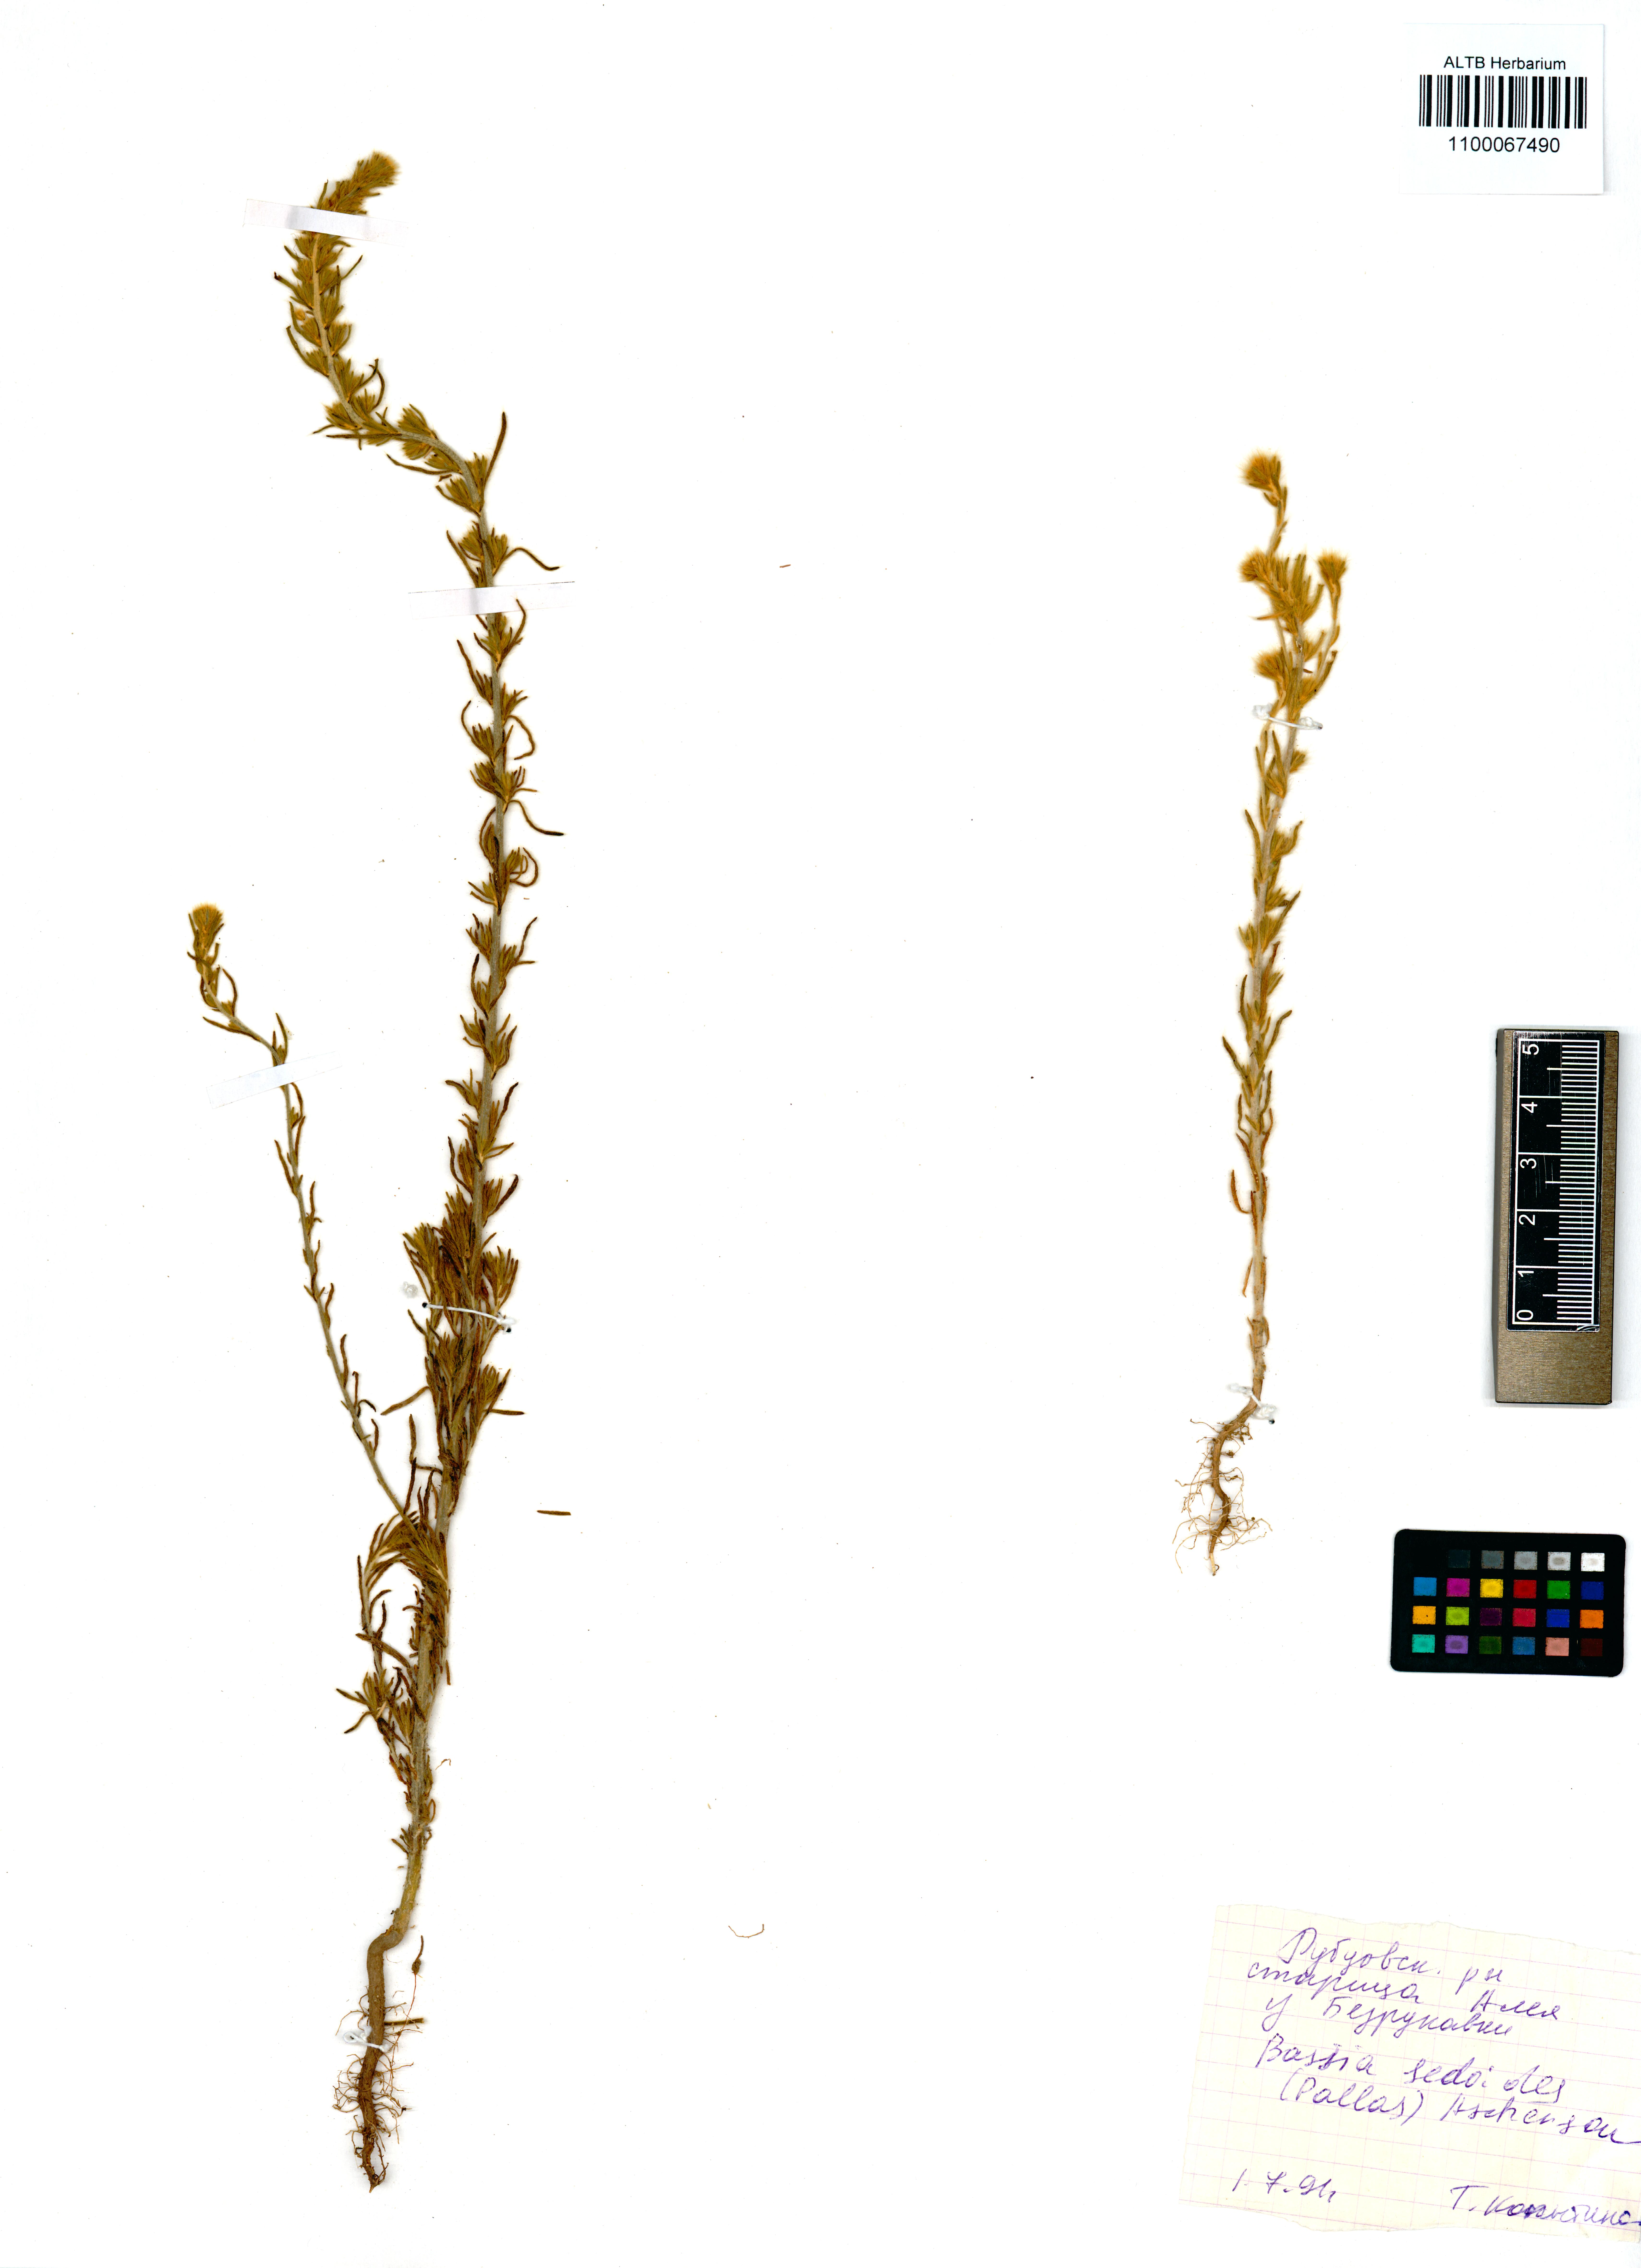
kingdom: Plantae
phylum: Tracheophyta
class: Magnoliopsida
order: Caryophyllales
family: Amaranthaceae
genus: Sedobassia
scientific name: Sedobassia sedoides
